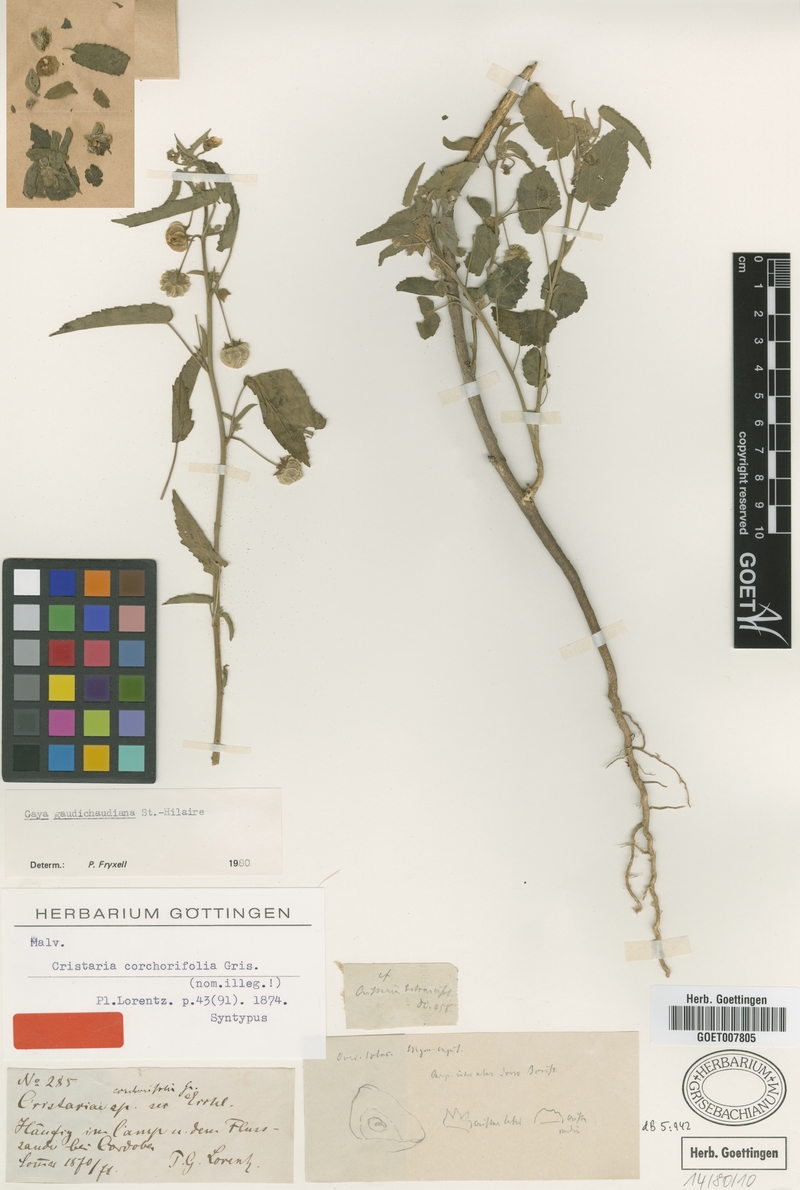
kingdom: Plantae
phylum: Tracheophyta
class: Magnoliopsida
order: Malvales
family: Malvaceae
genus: Gaya
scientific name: Gaya gaudichaudiana
